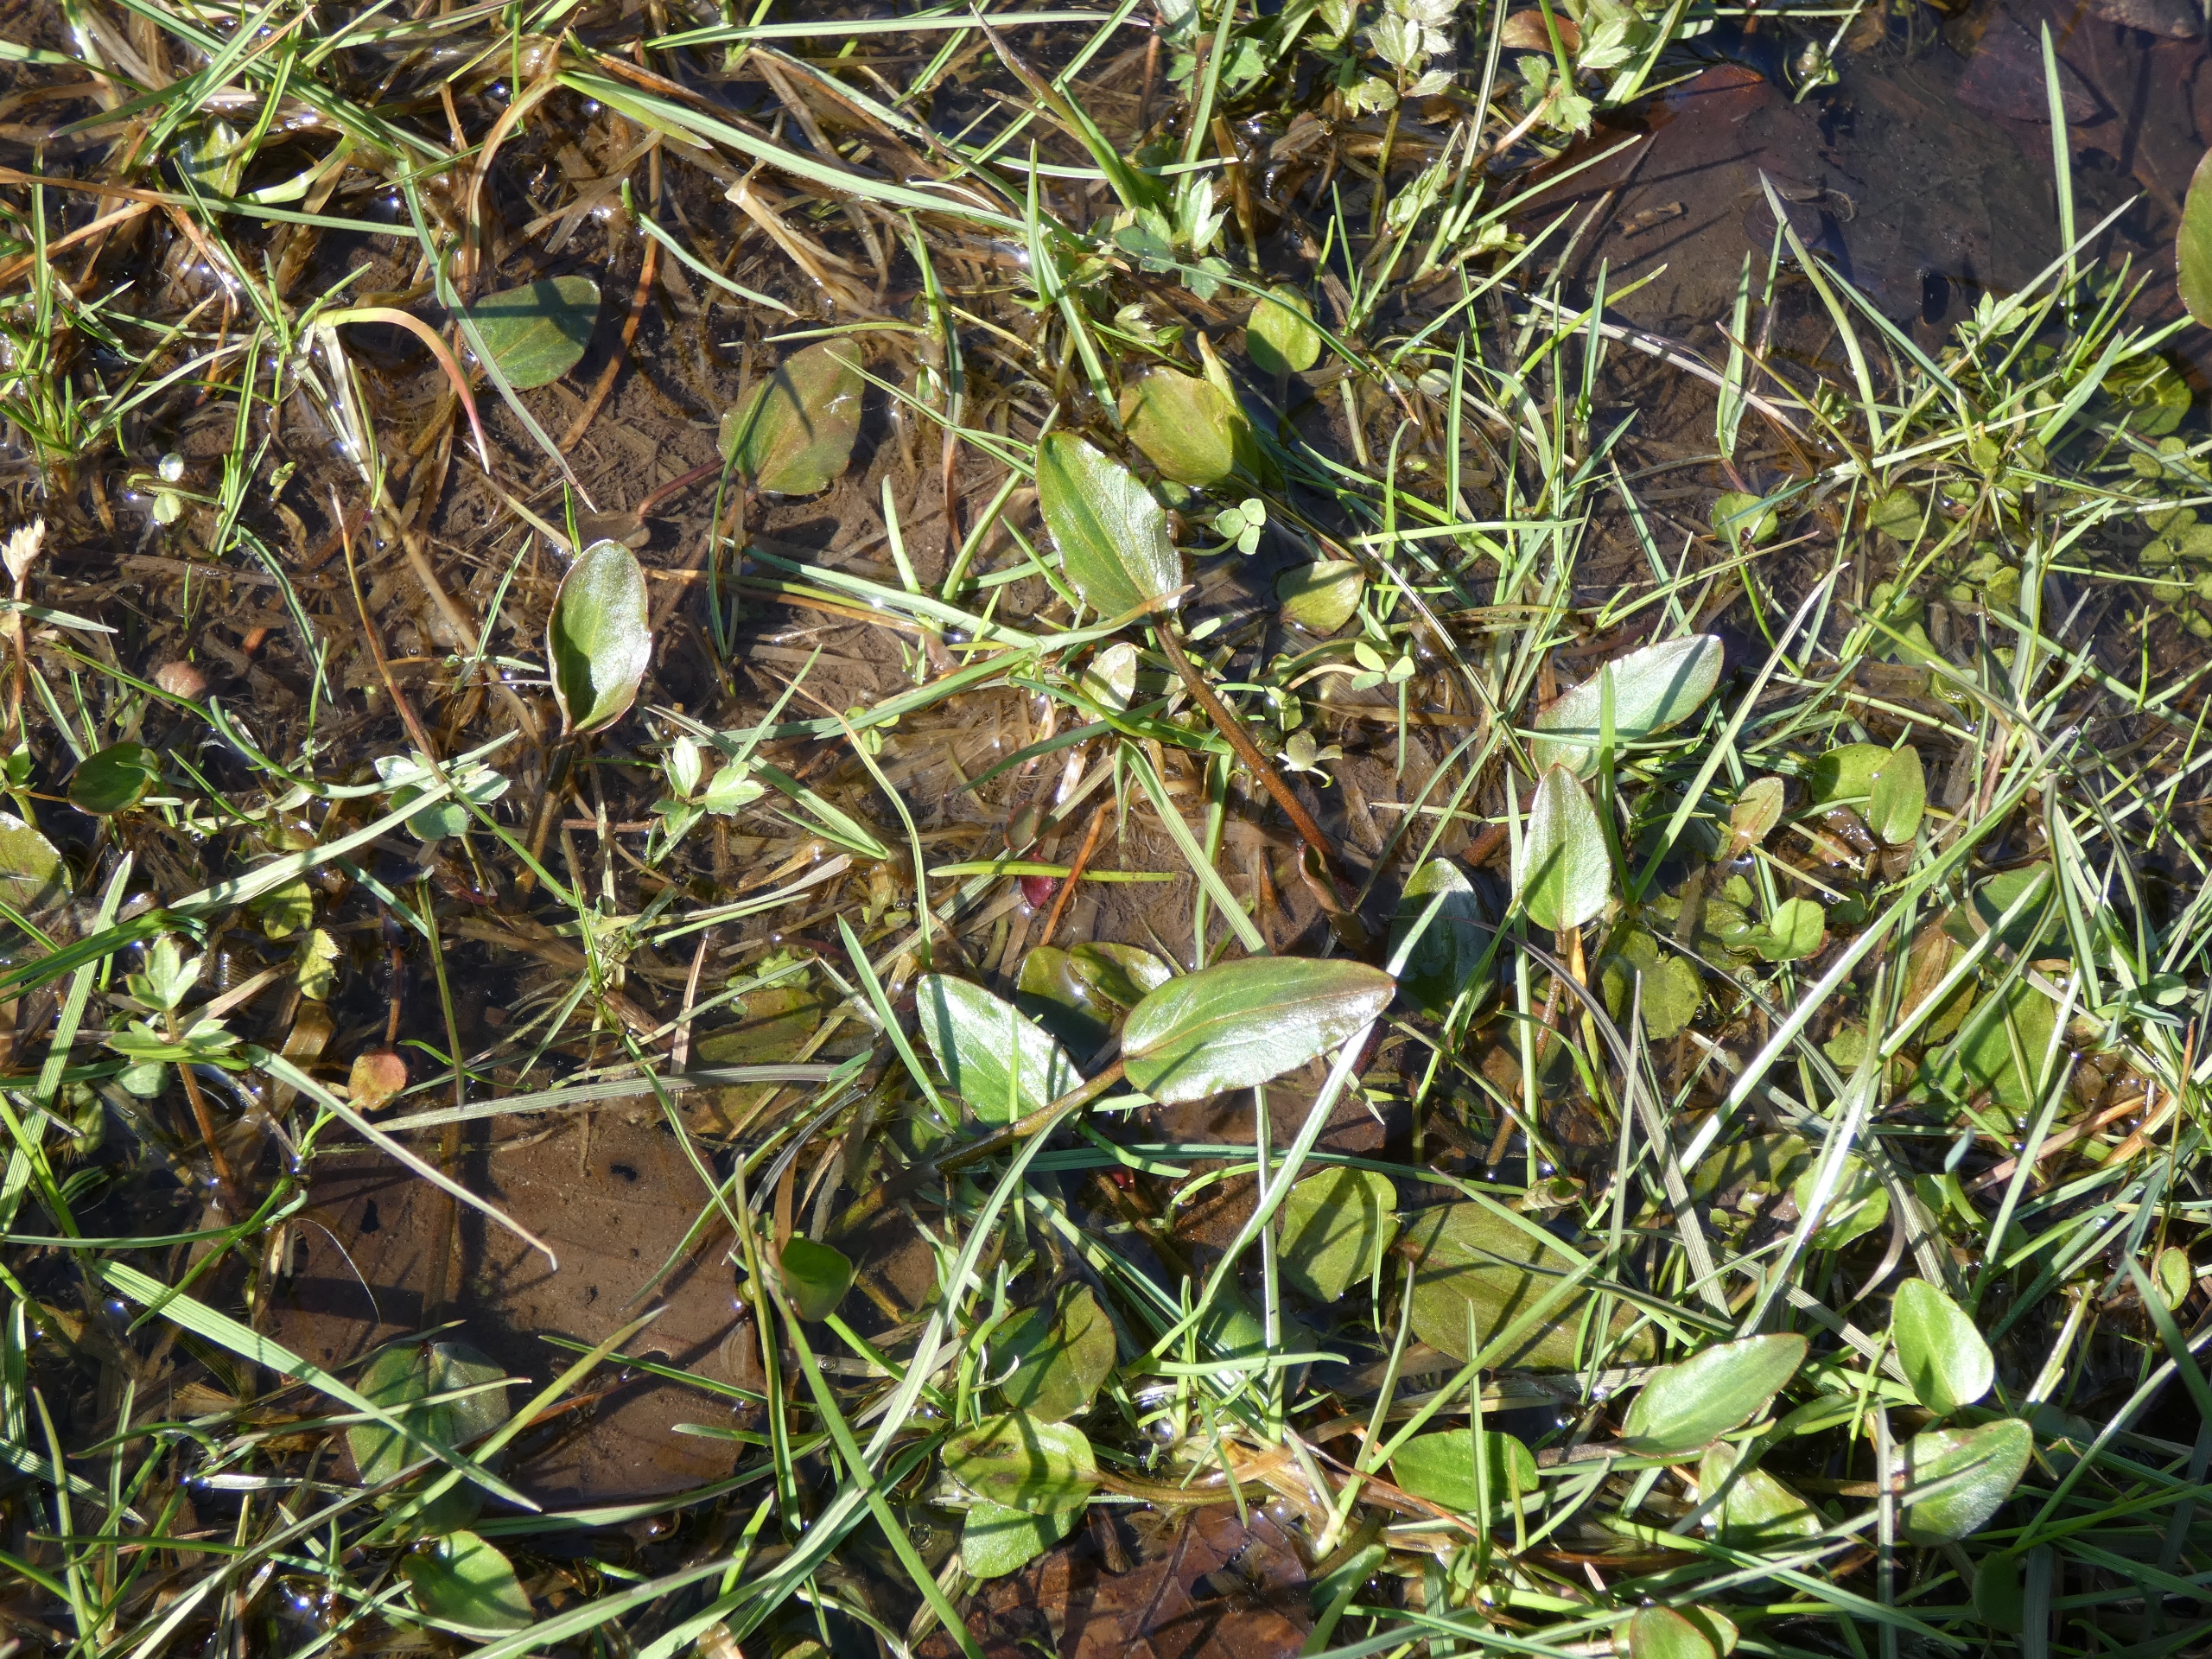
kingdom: Plantae
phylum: Tracheophyta
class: Magnoliopsida
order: Ranunculales
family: Ranunculaceae
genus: Ranunculus
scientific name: Ranunculus flammula
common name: Kær-ranunkel
